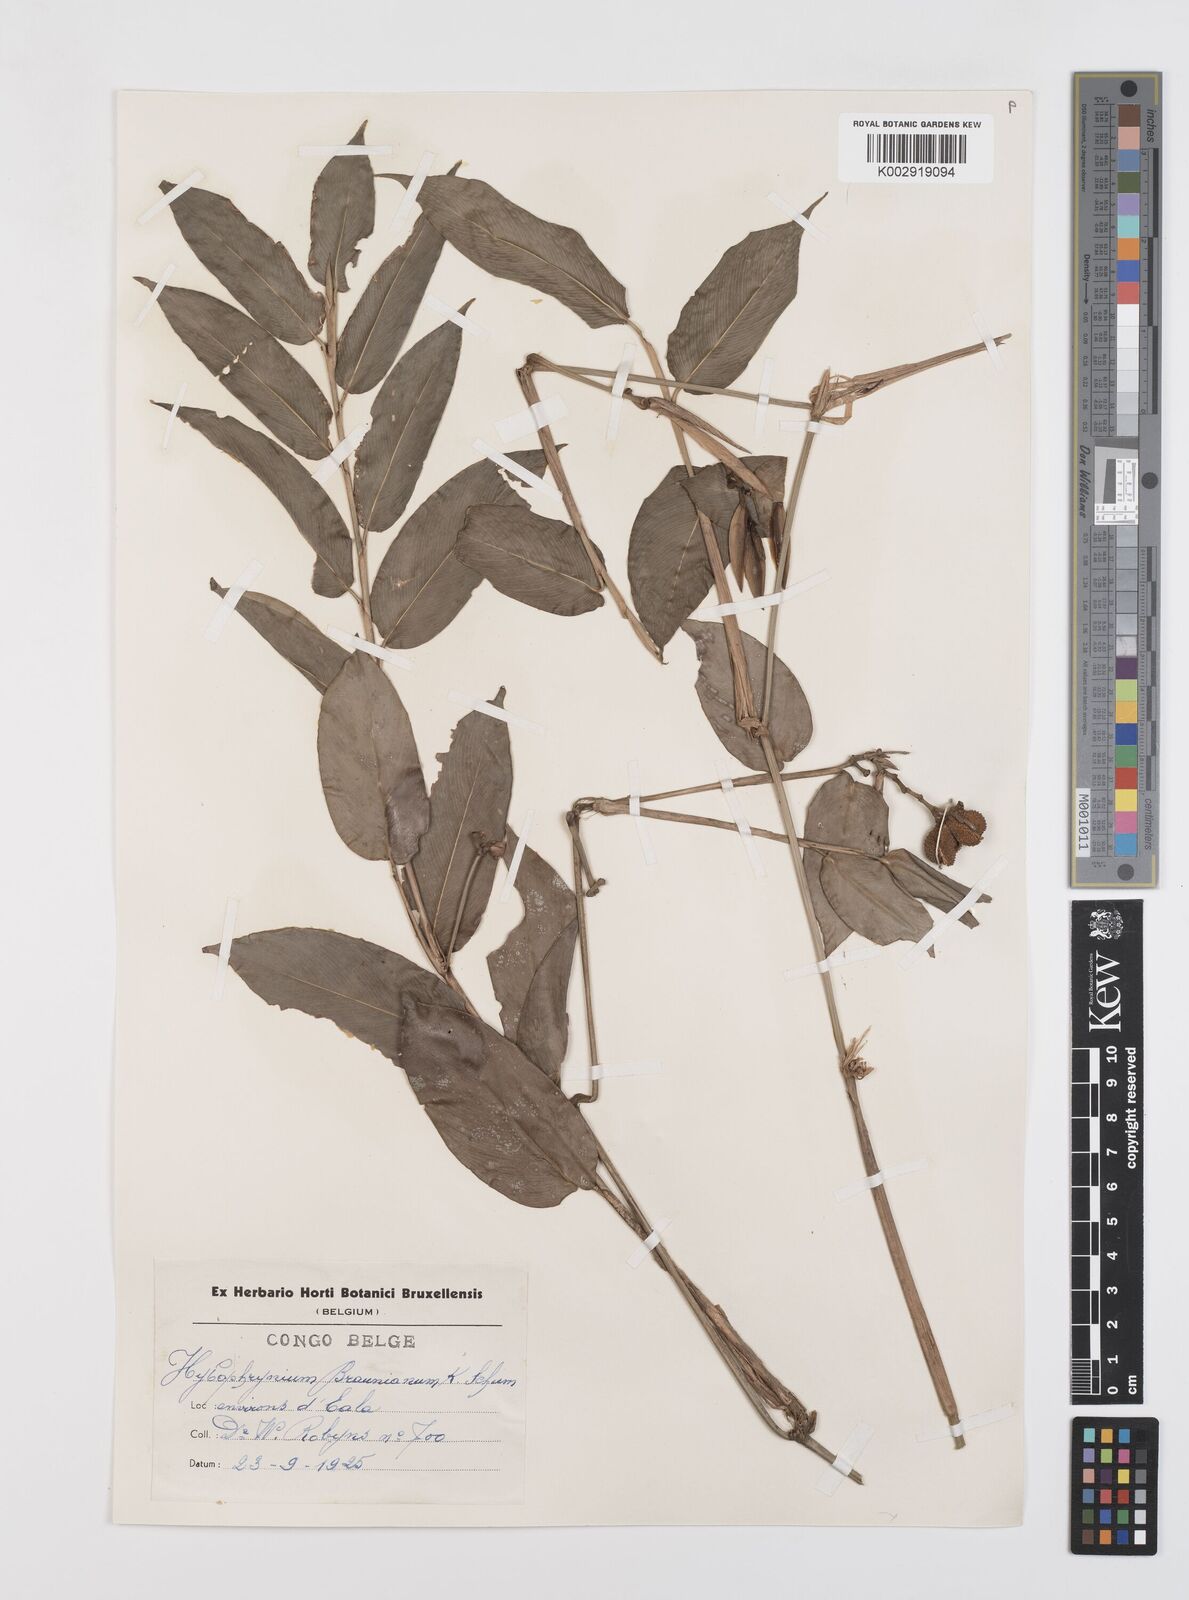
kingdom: Plantae
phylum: Tracheophyta
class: Liliopsida
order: Zingiberales
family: Marantaceae
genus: Trachyphrynium
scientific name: Trachyphrynium braunianum
